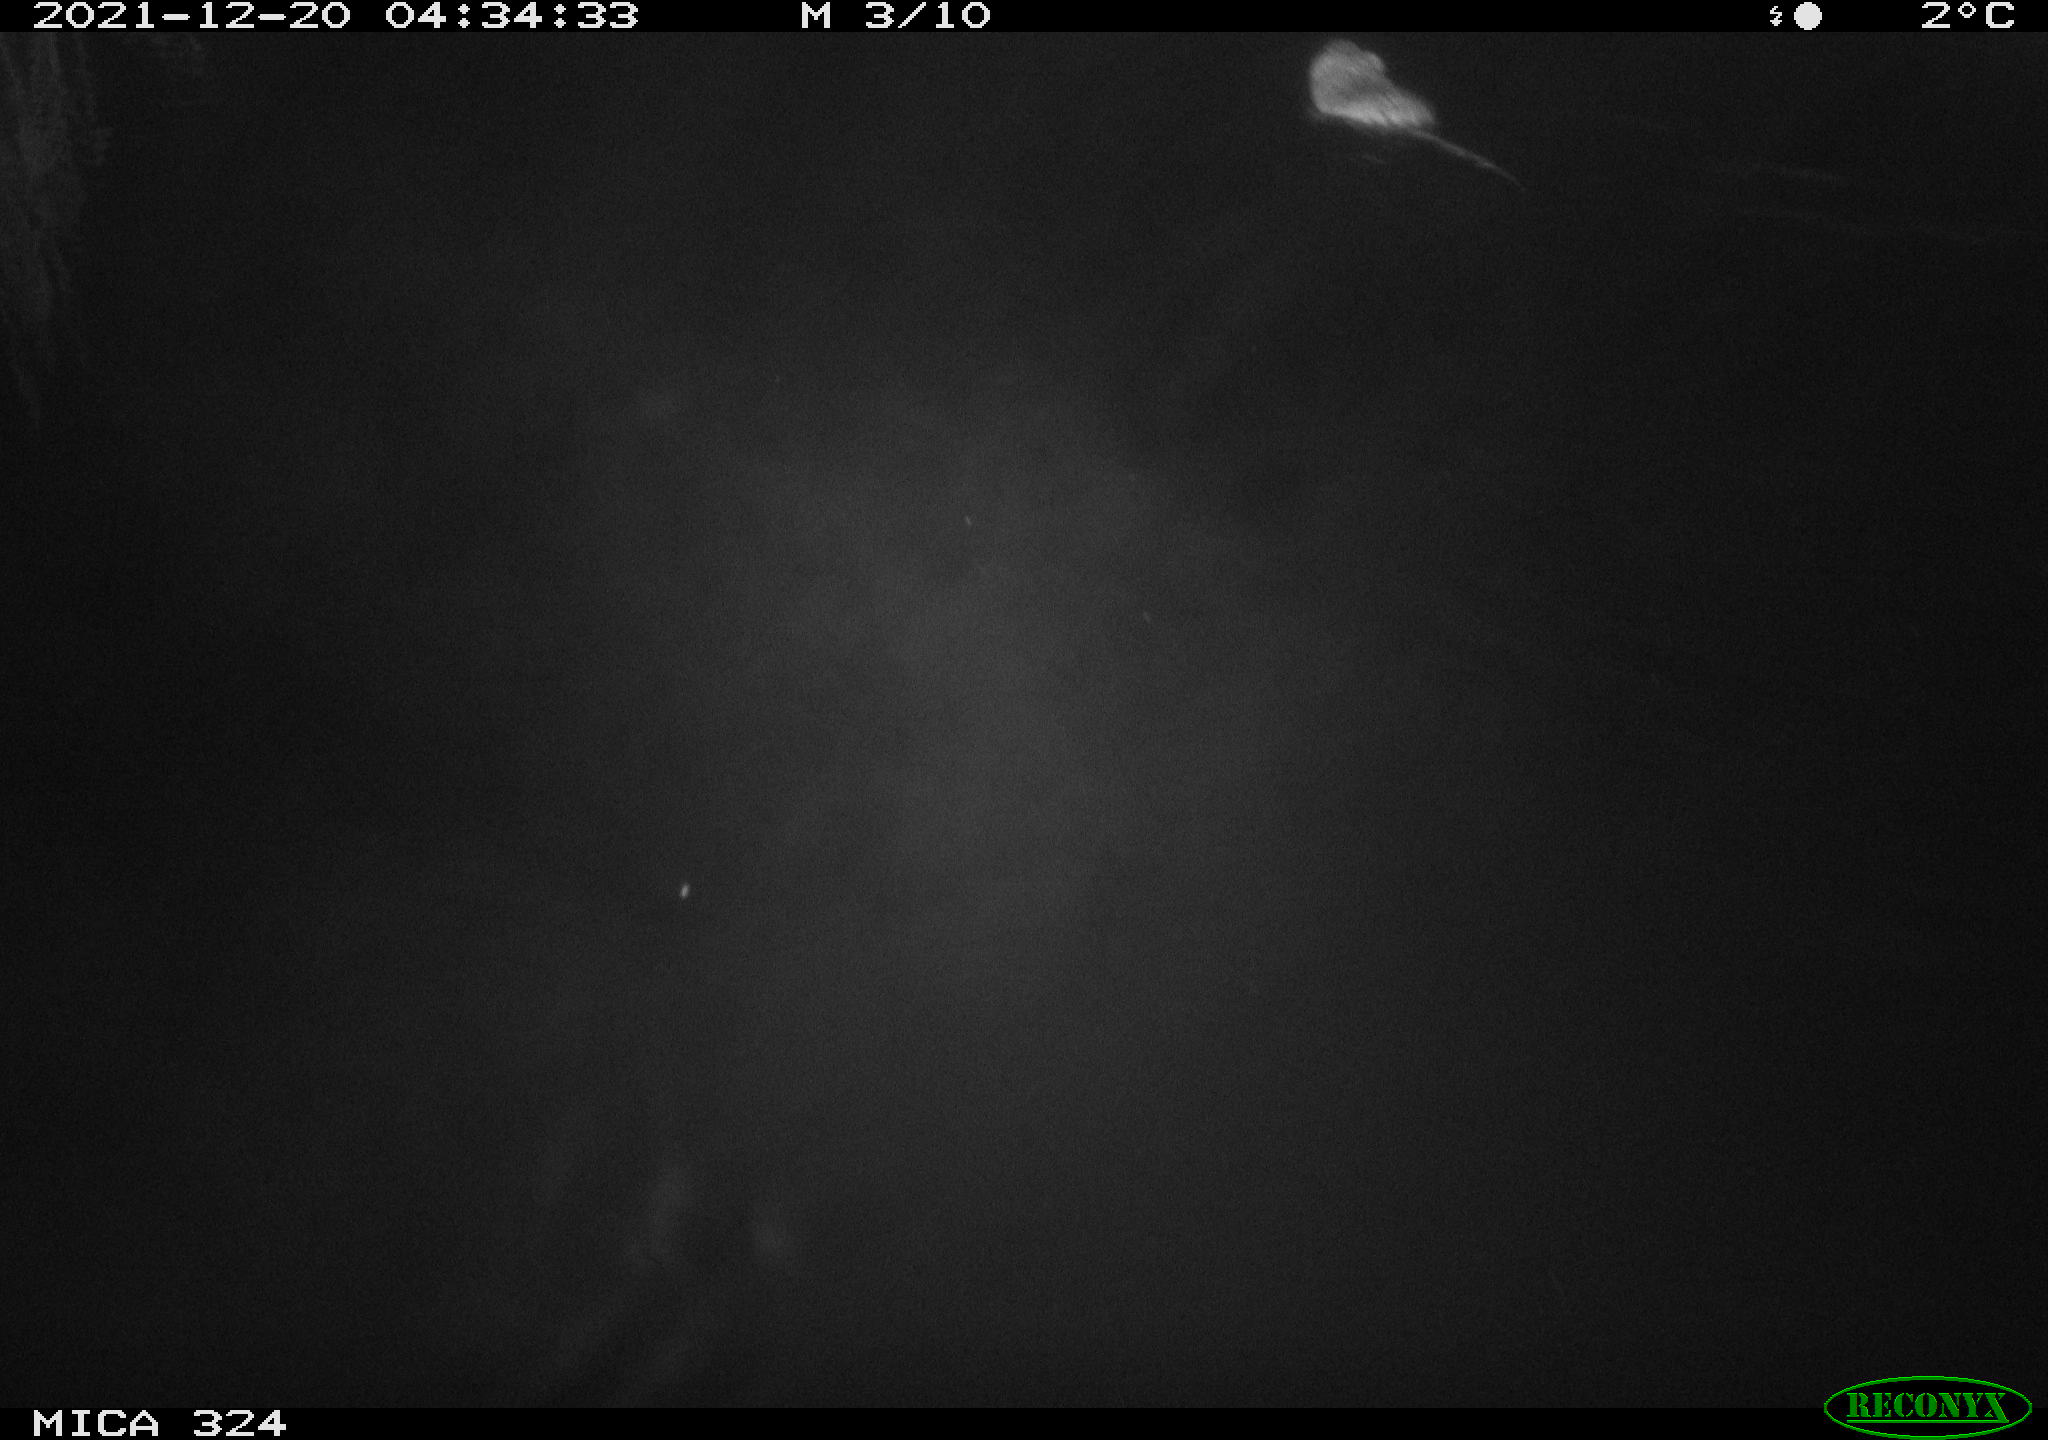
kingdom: Animalia
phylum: Chordata
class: Mammalia
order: Rodentia
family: Cricetidae
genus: Ondatra
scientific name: Ondatra zibethicus
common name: Muskrat
